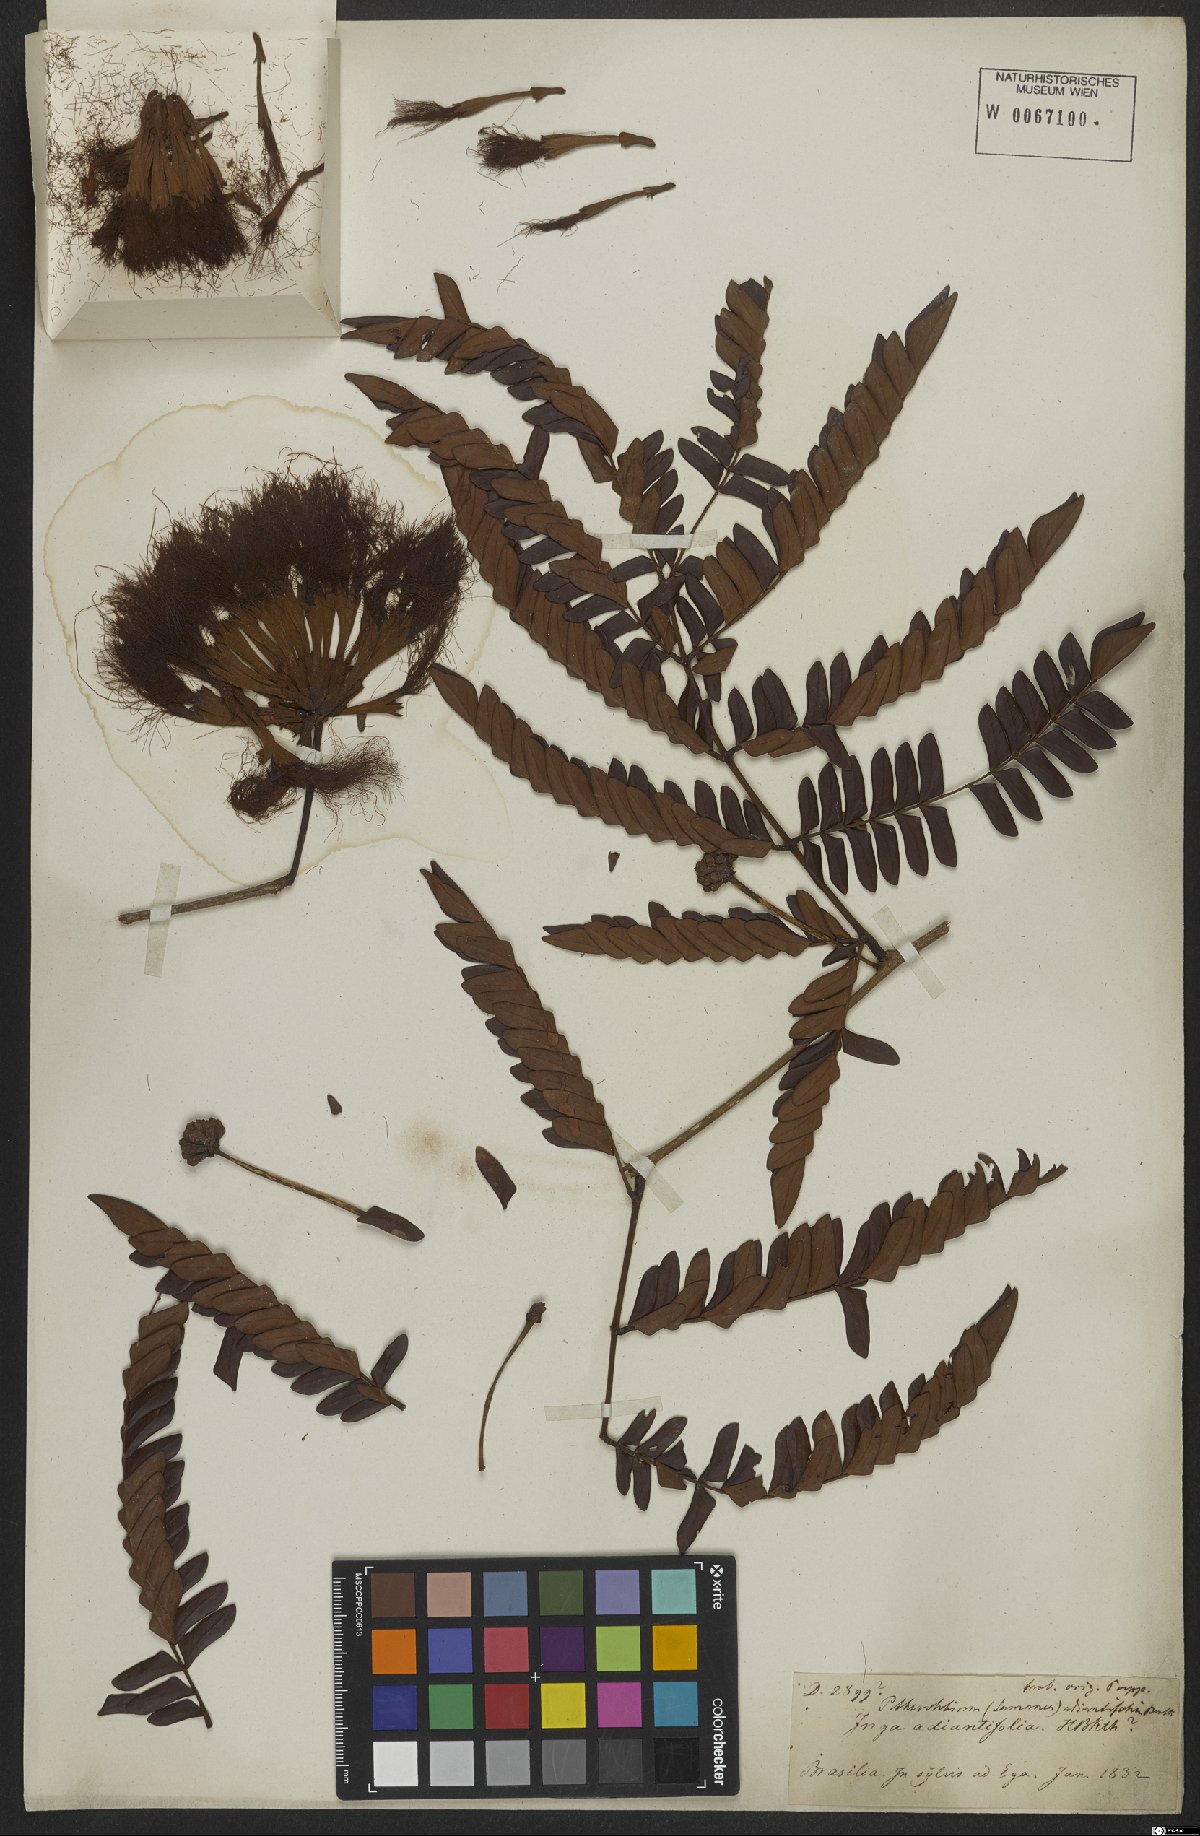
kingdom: Plantae
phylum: Tracheophyta
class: Magnoliopsida
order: Fabales
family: Fabaceae
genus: Macrosamanea
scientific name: Macrosamanea discolor
